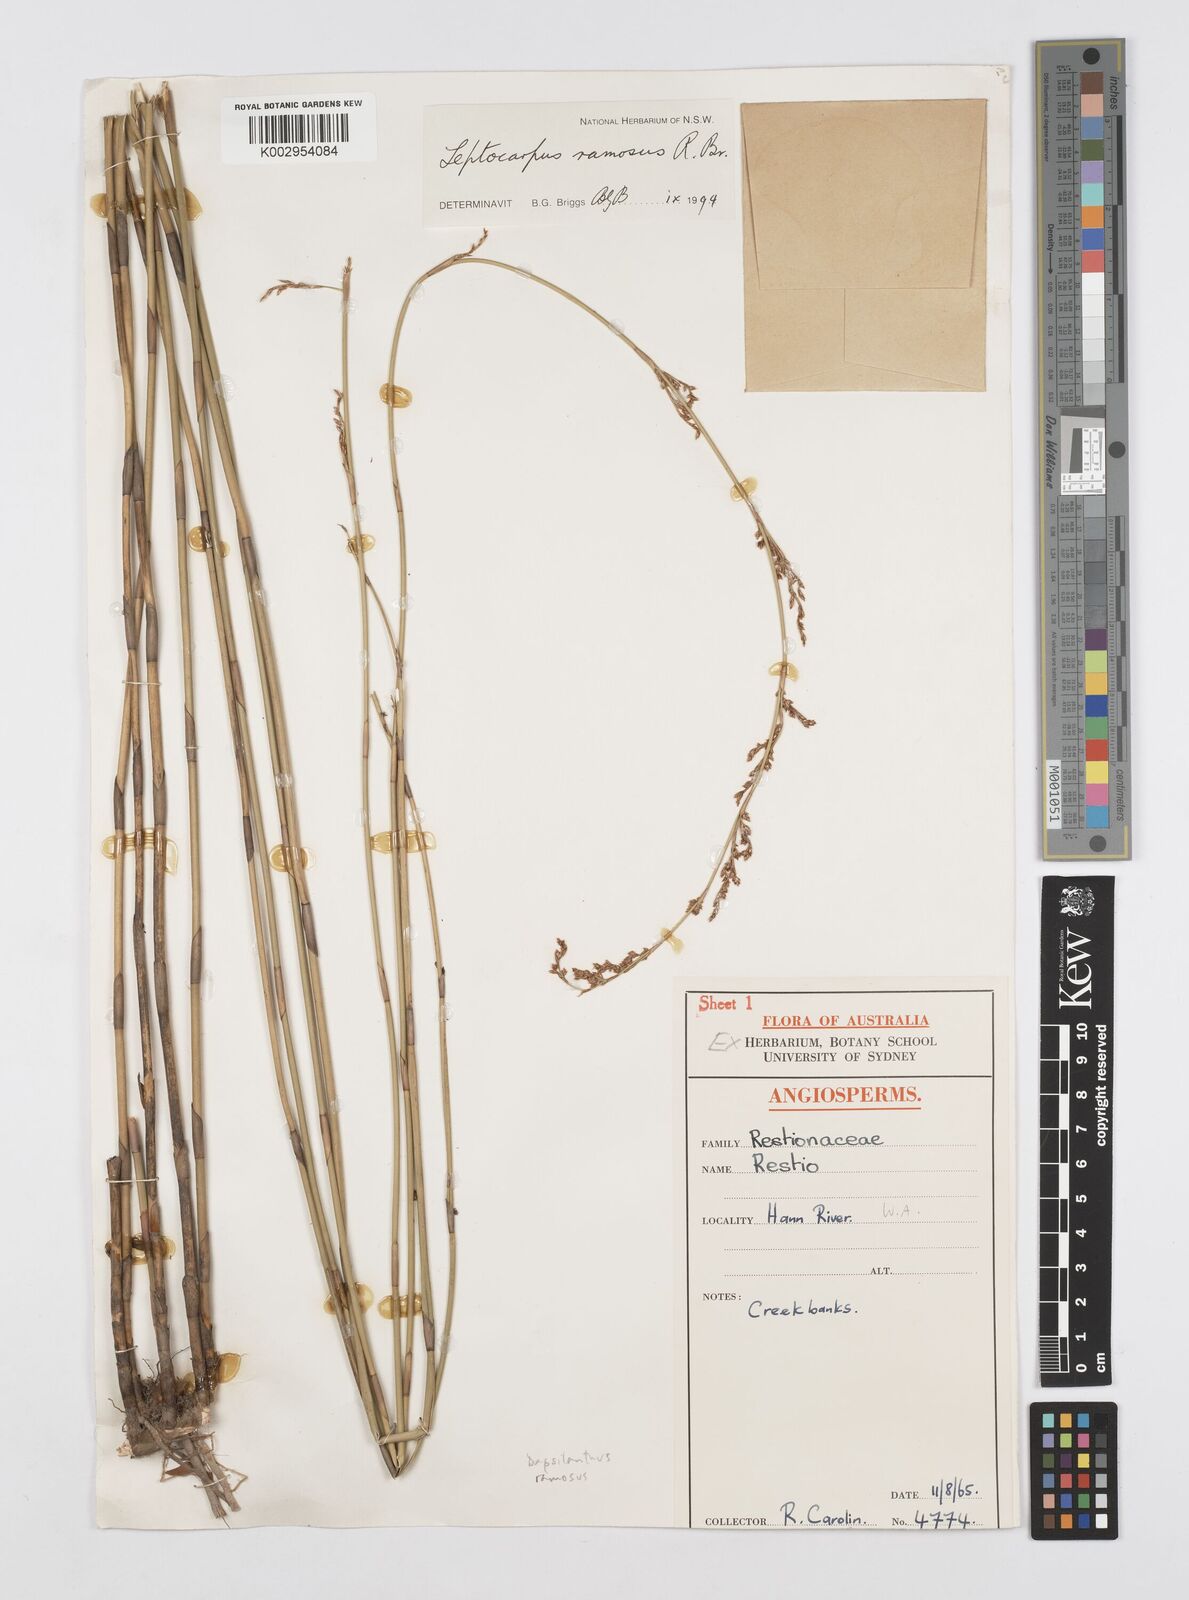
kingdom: Plantae
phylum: Tracheophyta
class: Liliopsida
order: Poales
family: Restionaceae
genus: Dapsilanthus
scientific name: Dapsilanthus ramosus
